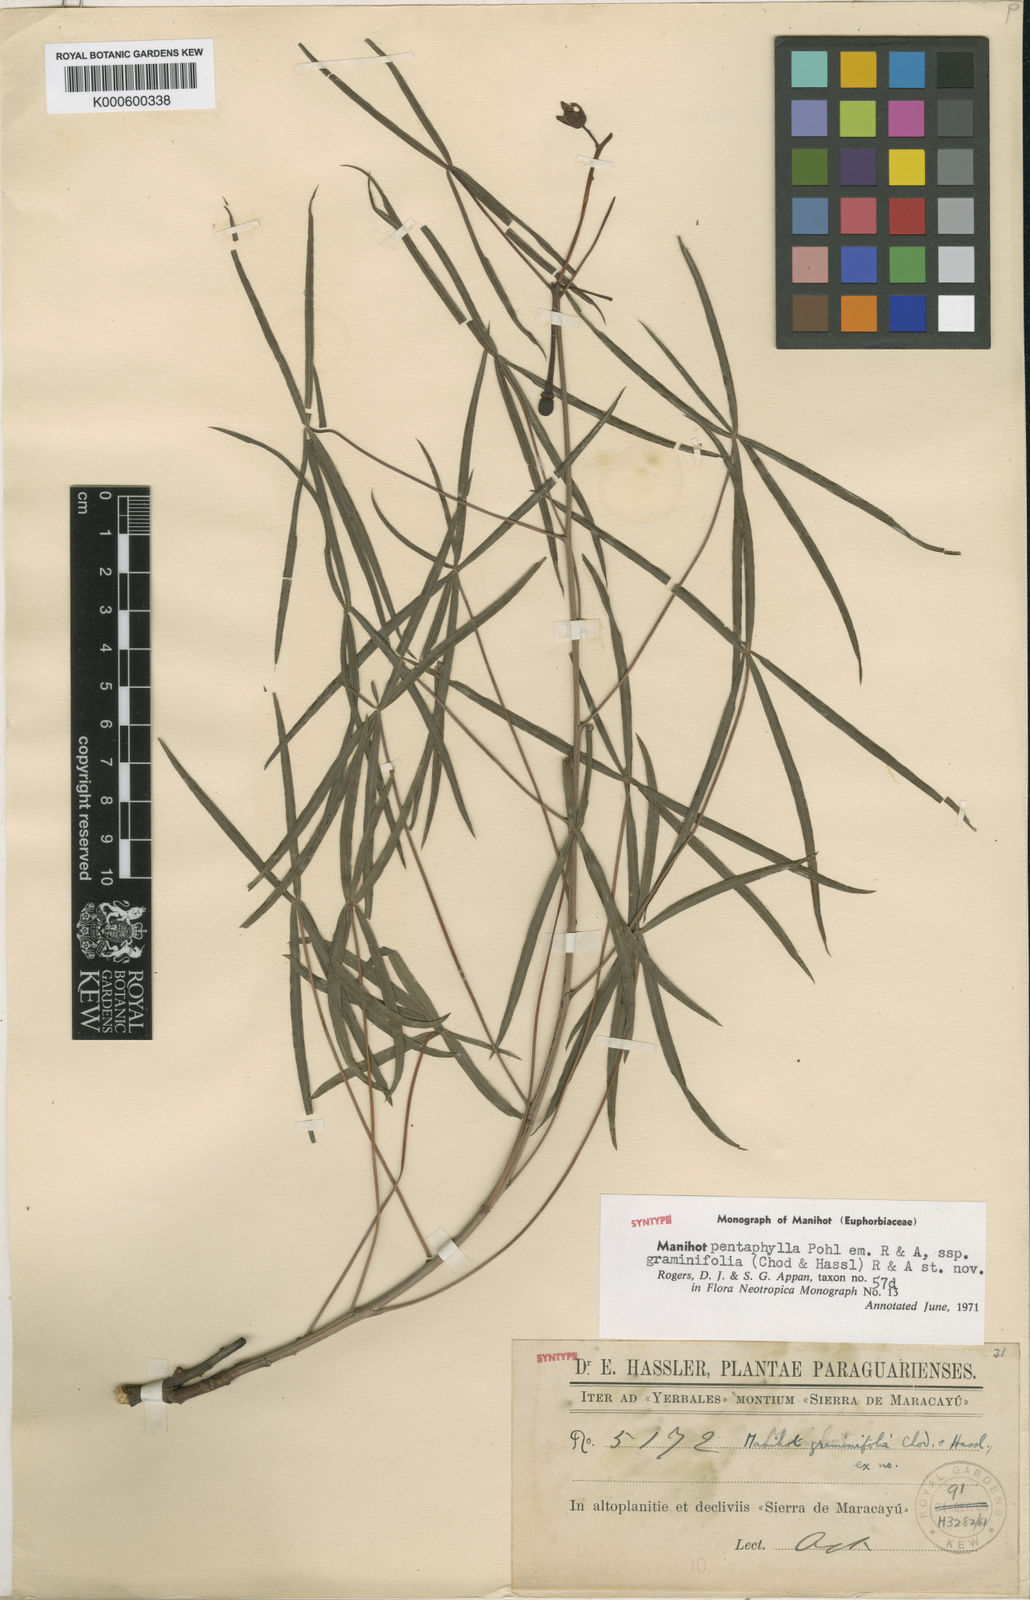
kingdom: Plantae
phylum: Tracheophyta
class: Magnoliopsida
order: Malpighiales
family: Euphorbiaceae
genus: Manihot
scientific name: Manihot pentaphylla
